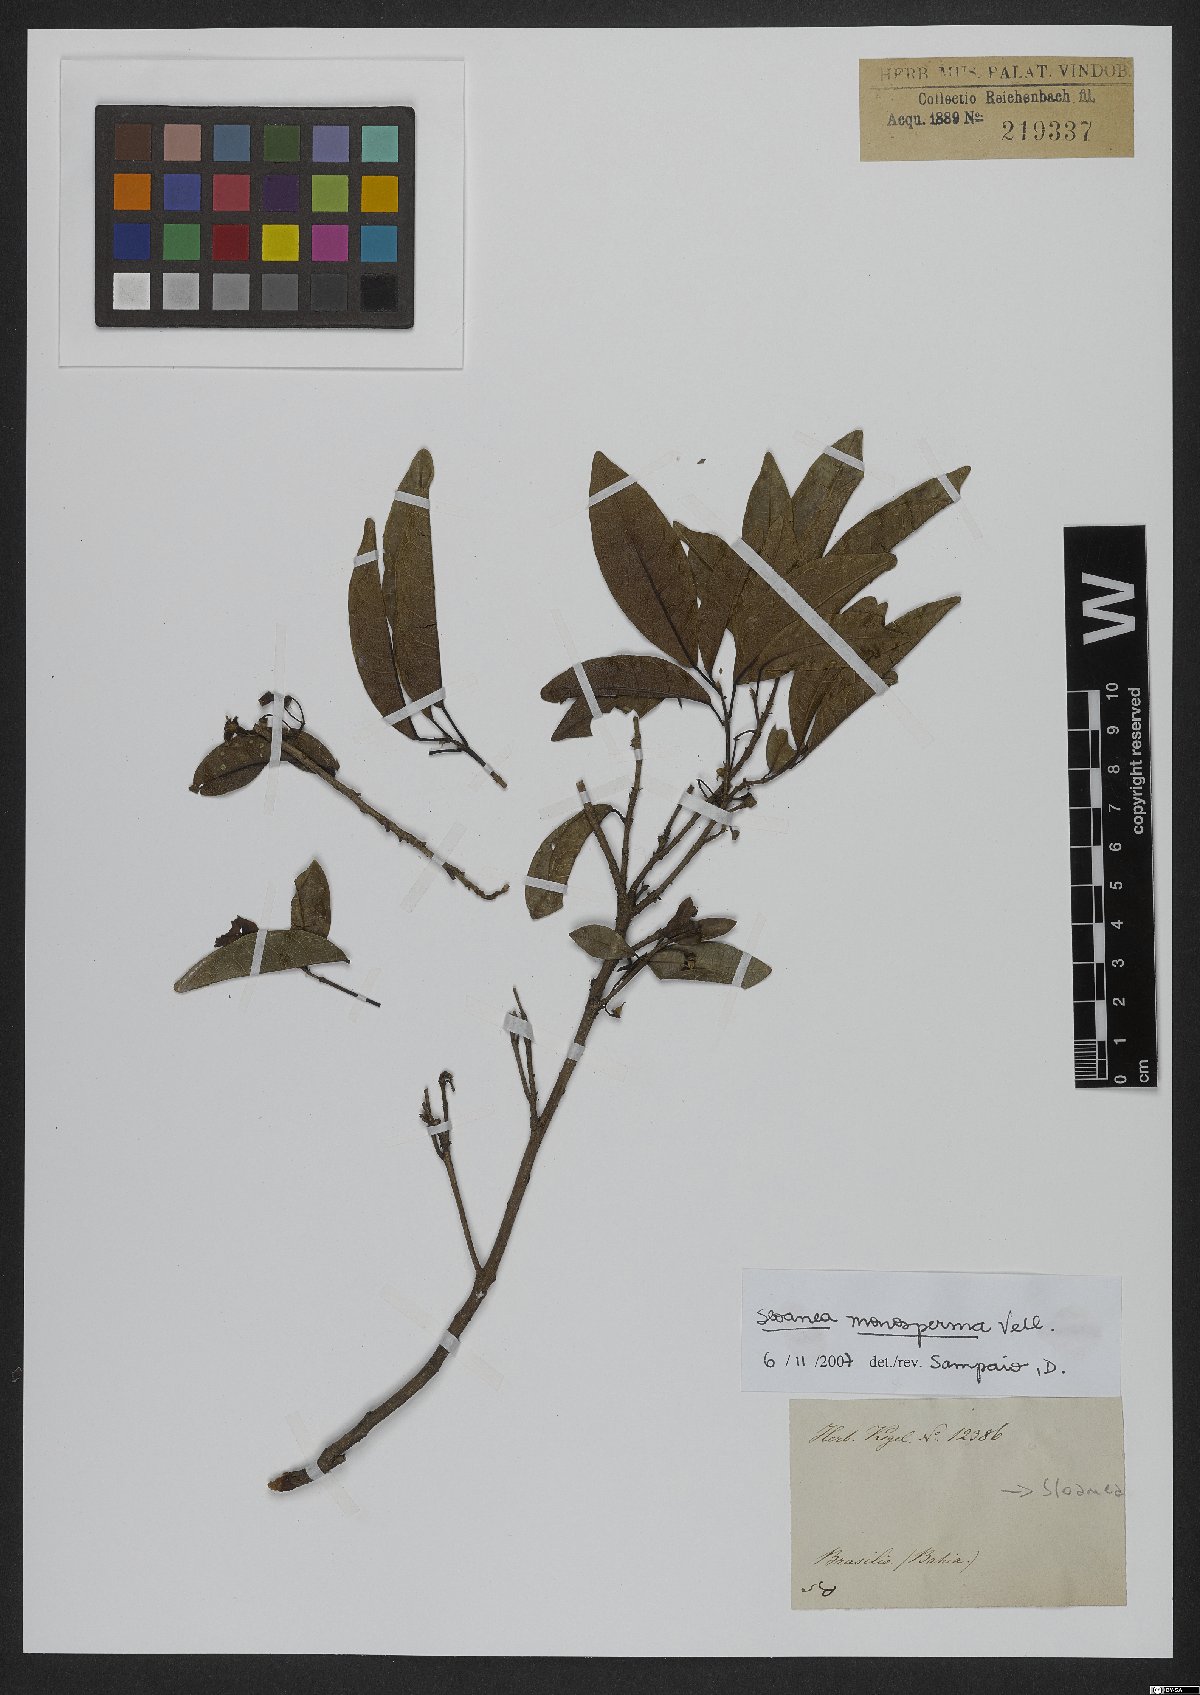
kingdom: Plantae
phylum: Tracheophyta
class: Magnoliopsida
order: Oxalidales
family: Elaeocarpaceae
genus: Sloanea
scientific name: Sloanea hirsuta
